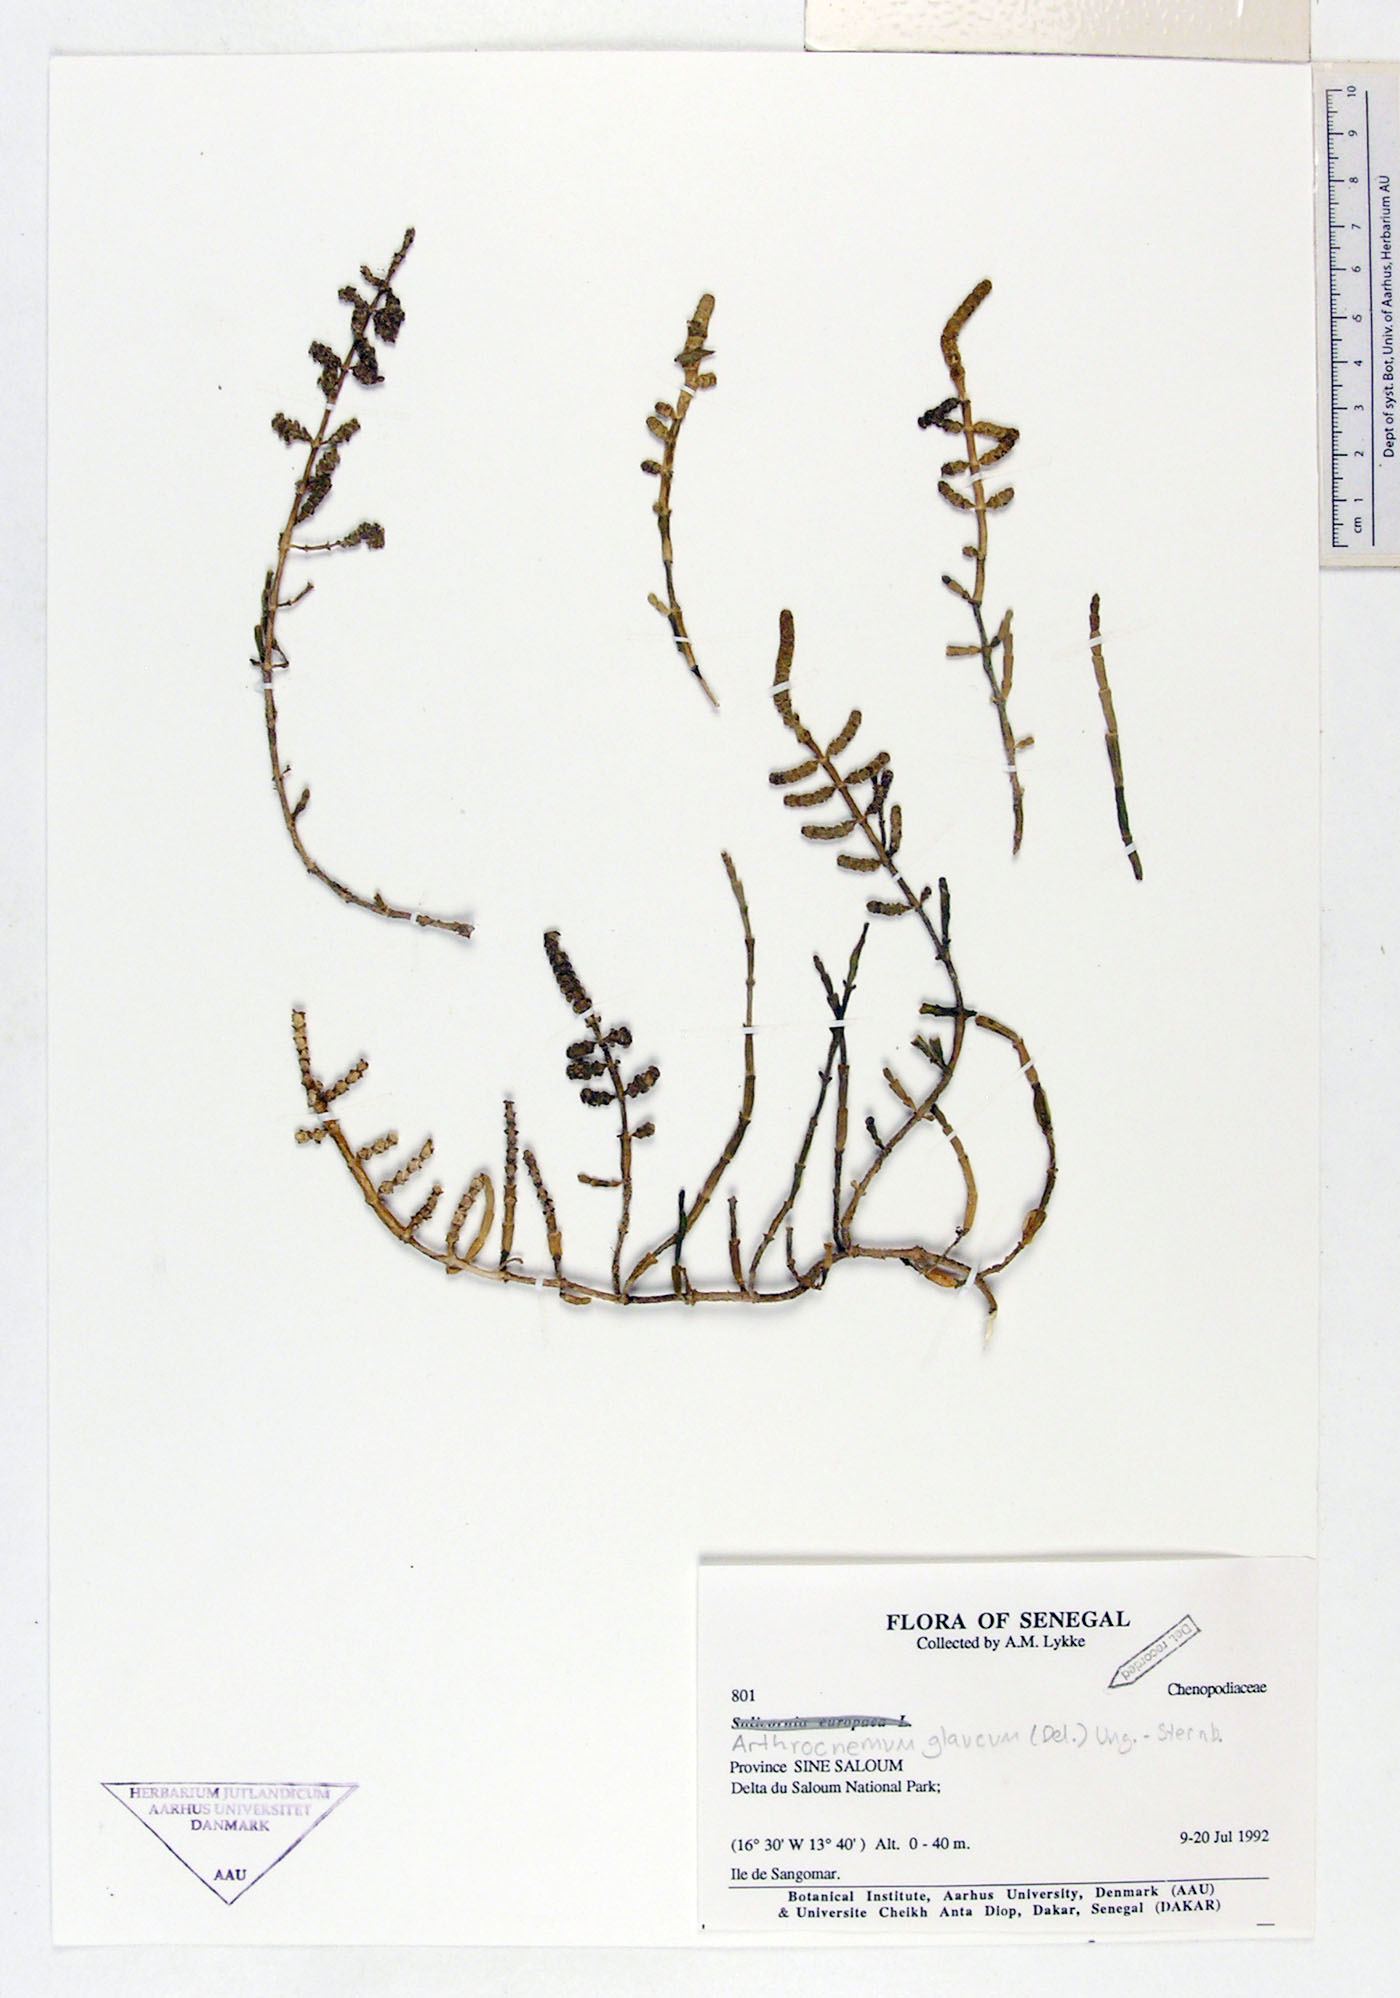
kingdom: Plantae
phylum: Tracheophyta
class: Magnoliopsida
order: Caryophyllales
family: Amaranthaceae
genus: Salicornia
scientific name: Salicornia perennis
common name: Chicken claws
